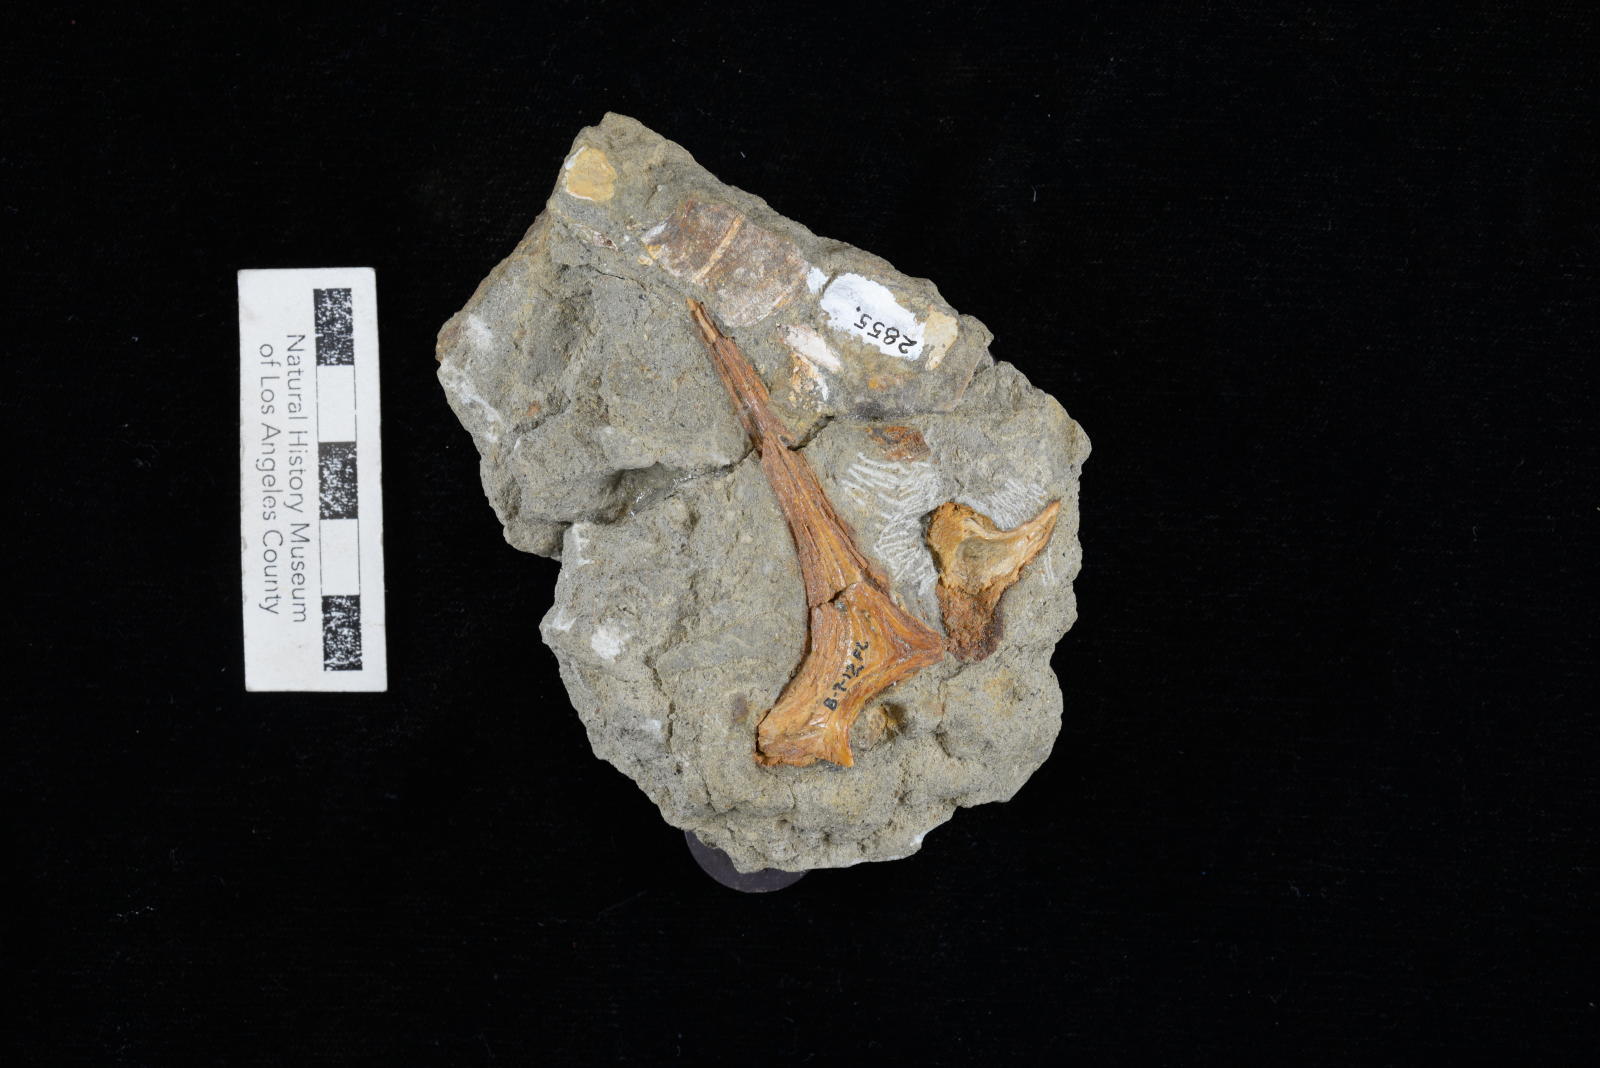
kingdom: Animalia
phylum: Mollusca
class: Gastropoda
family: Nerineidae
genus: Nerinea
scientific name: Nerinea stewarti
